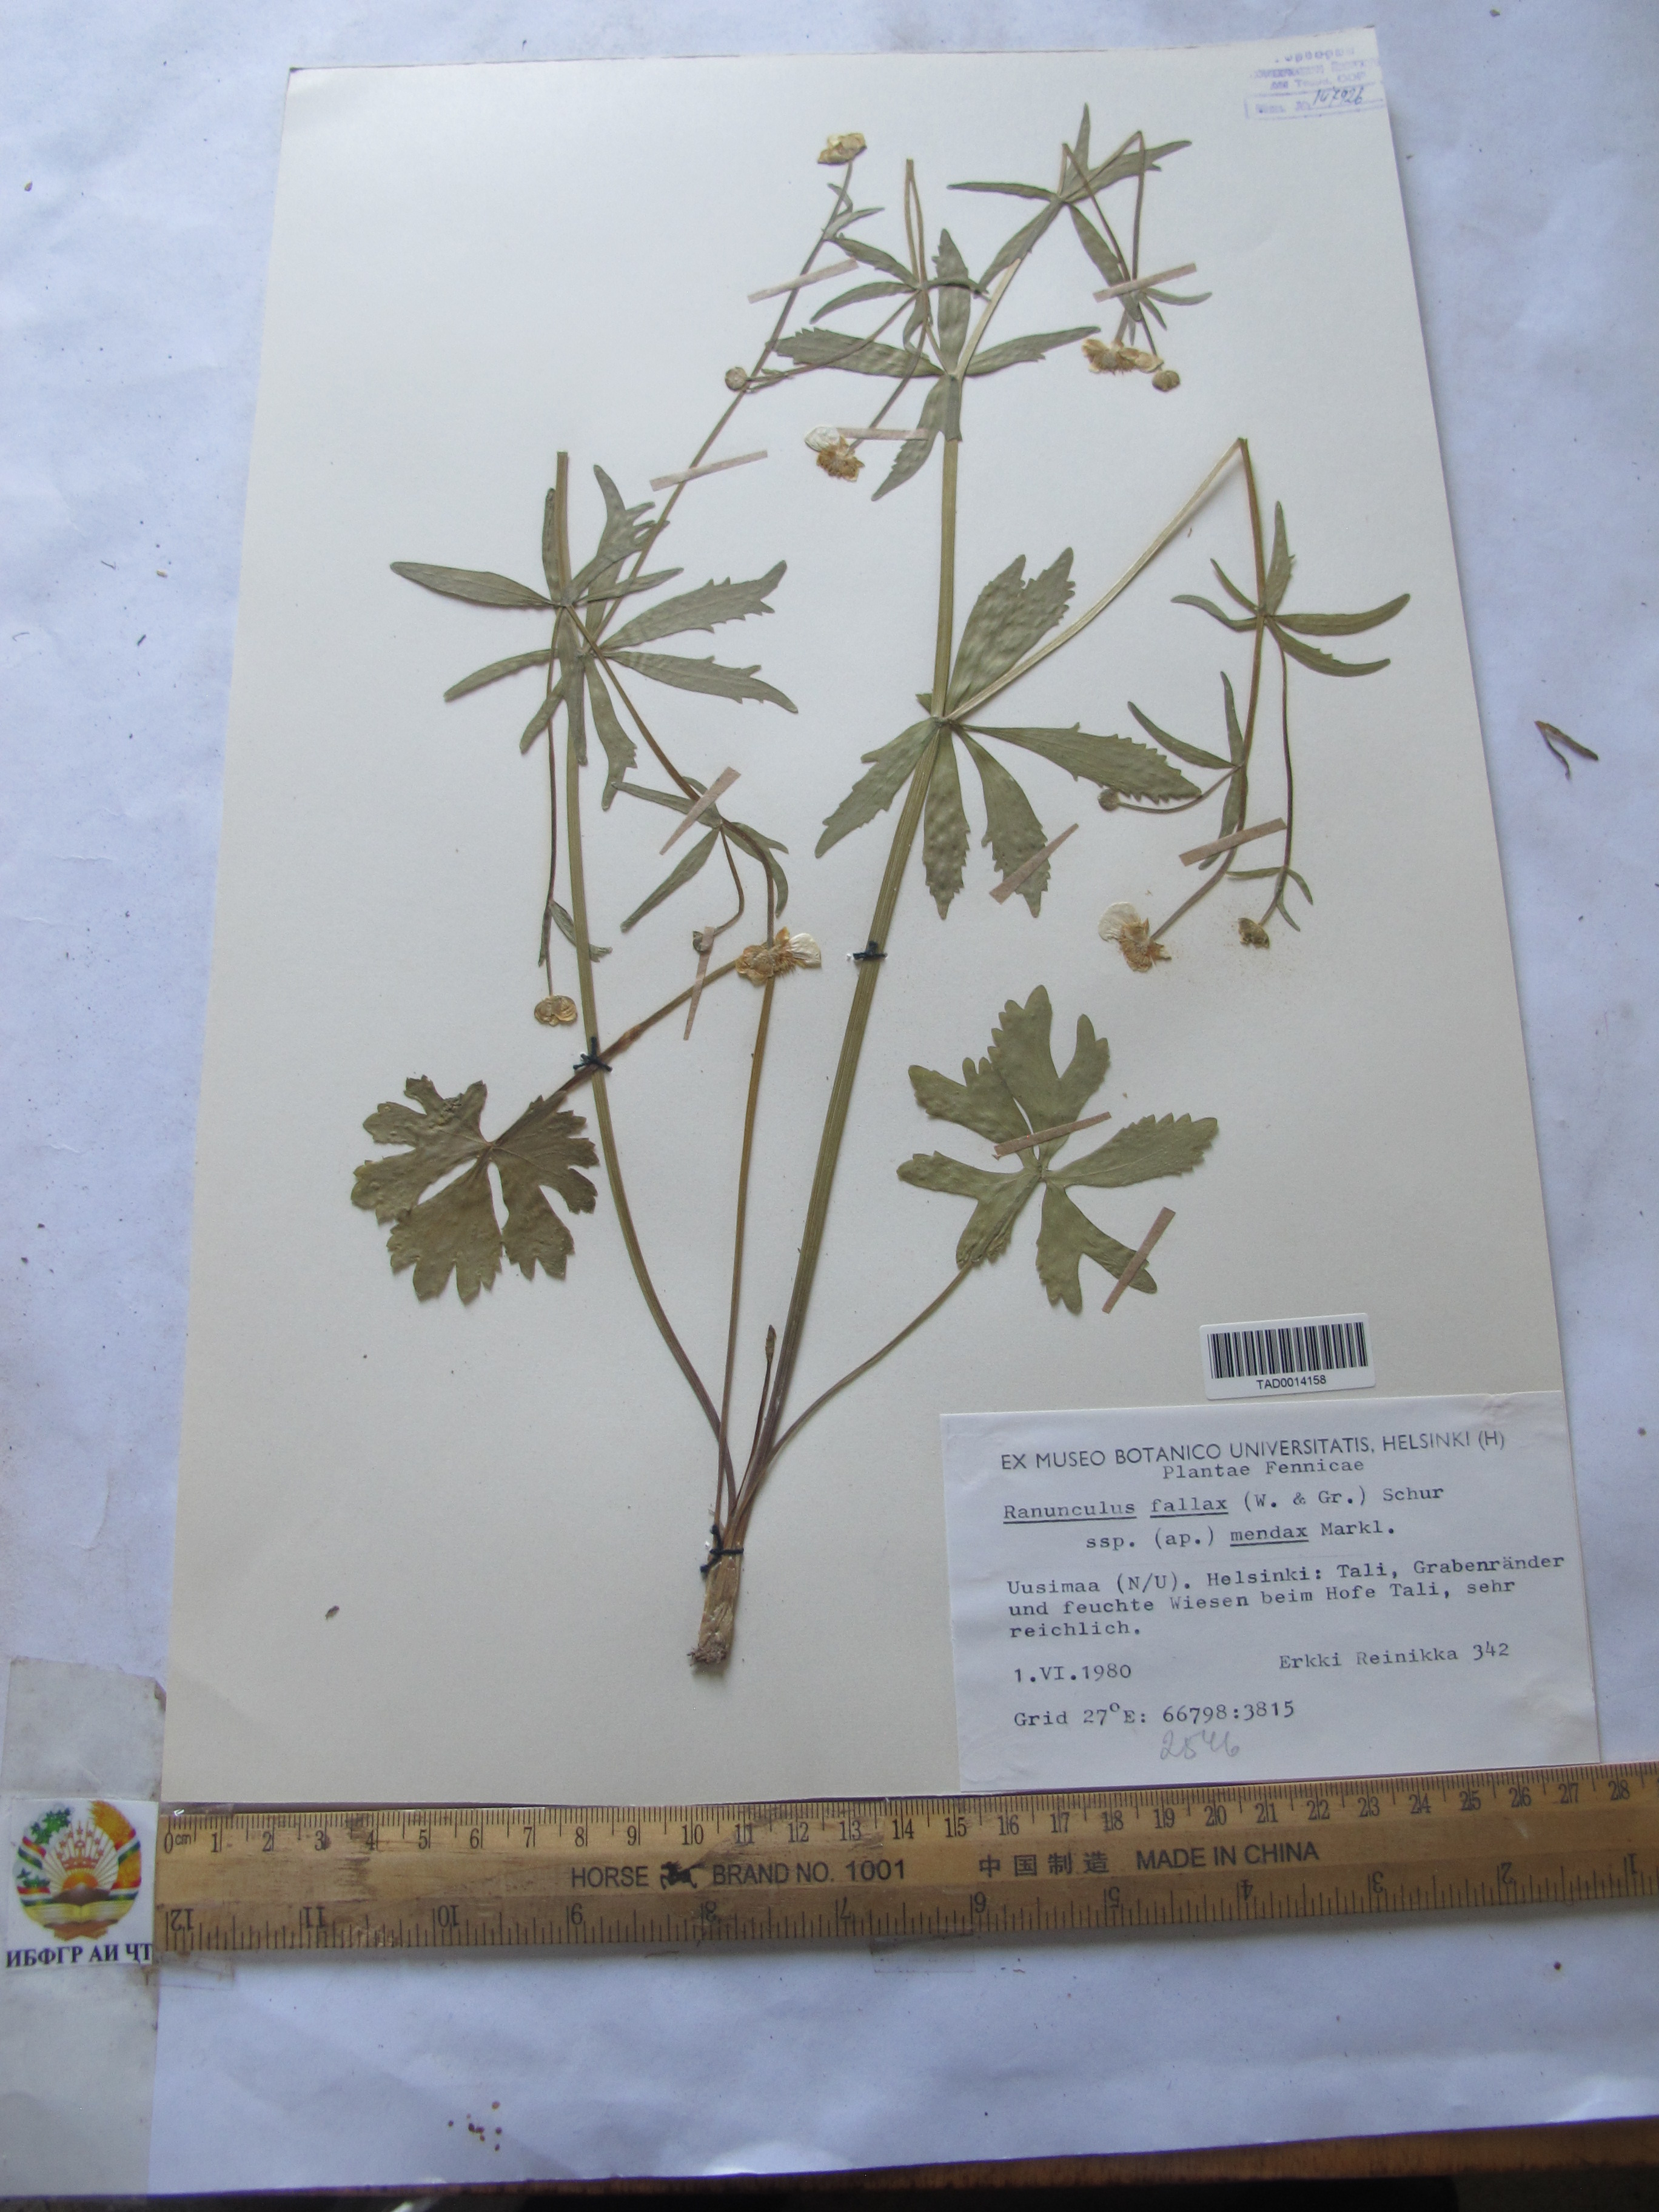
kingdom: Plantae
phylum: Tracheophyta
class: Magnoliopsida
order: Ranunculales
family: Ranunculaceae
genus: Ranunculus
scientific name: Ranunculus fallax
